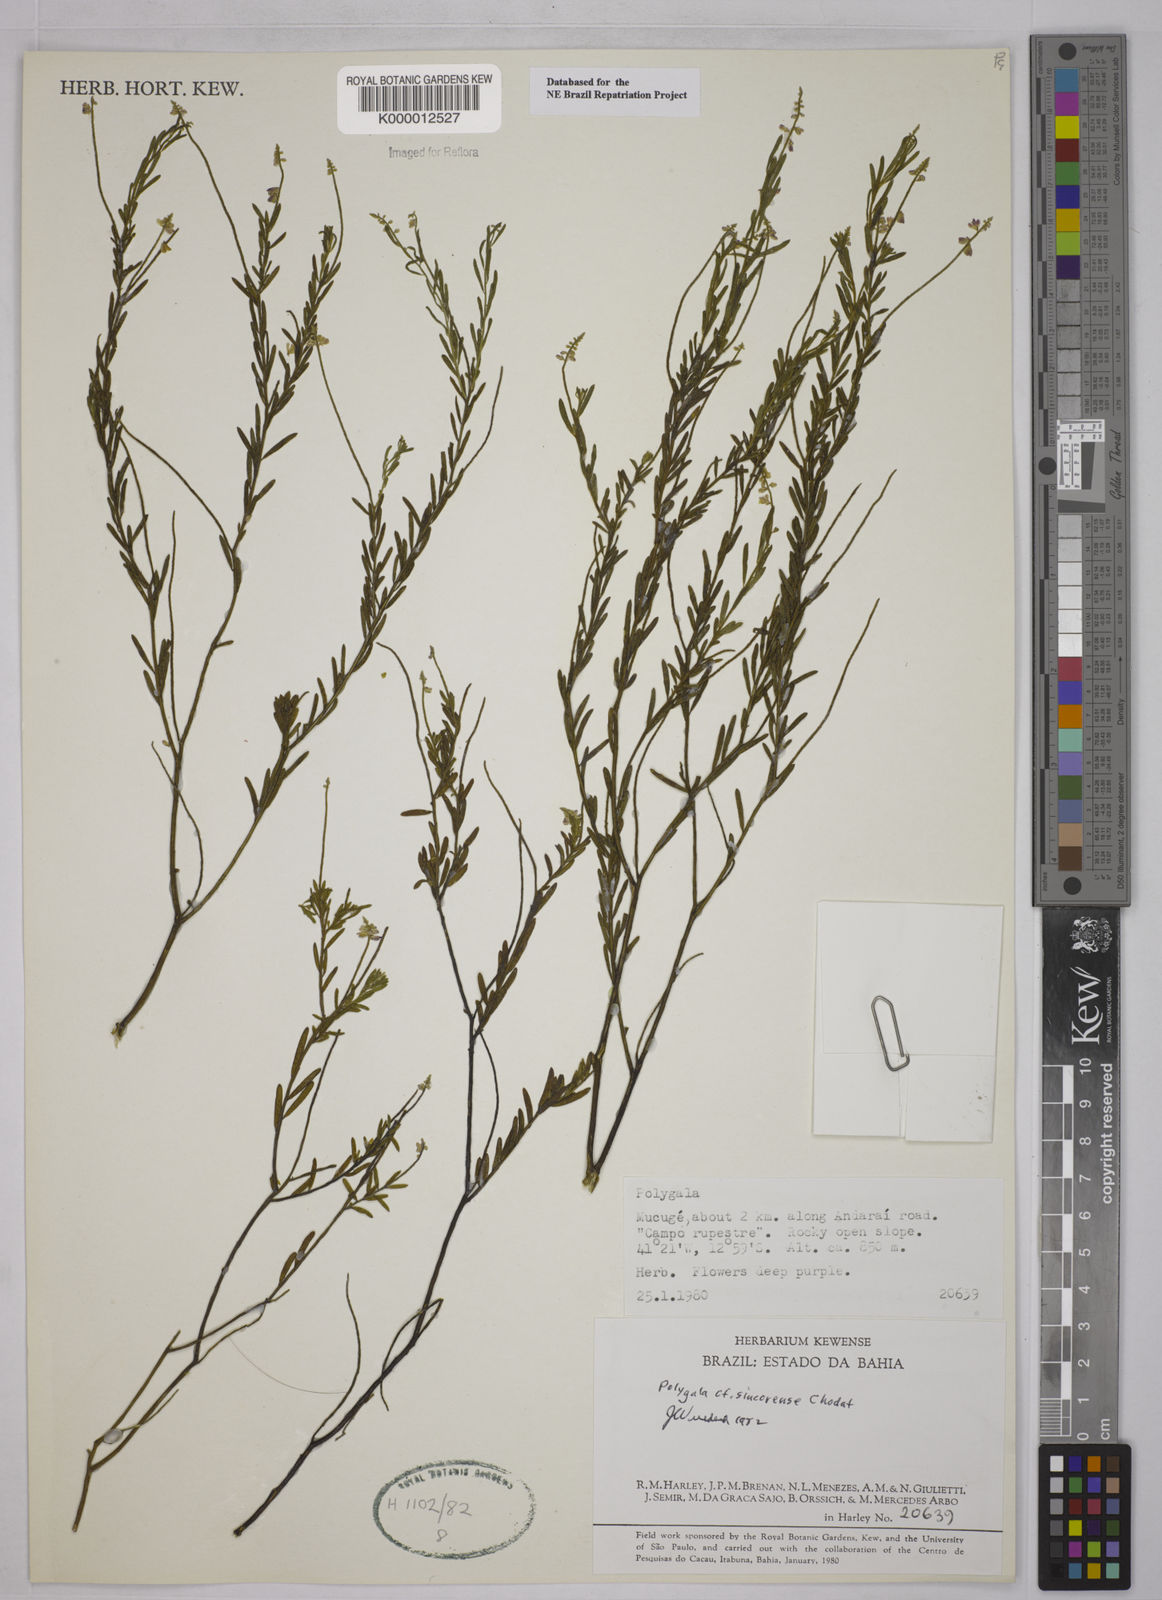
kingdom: Plantae
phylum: Tracheophyta
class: Magnoliopsida
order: Fabales
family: Polygalaceae
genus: Polygala
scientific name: Polygala tuberculata
